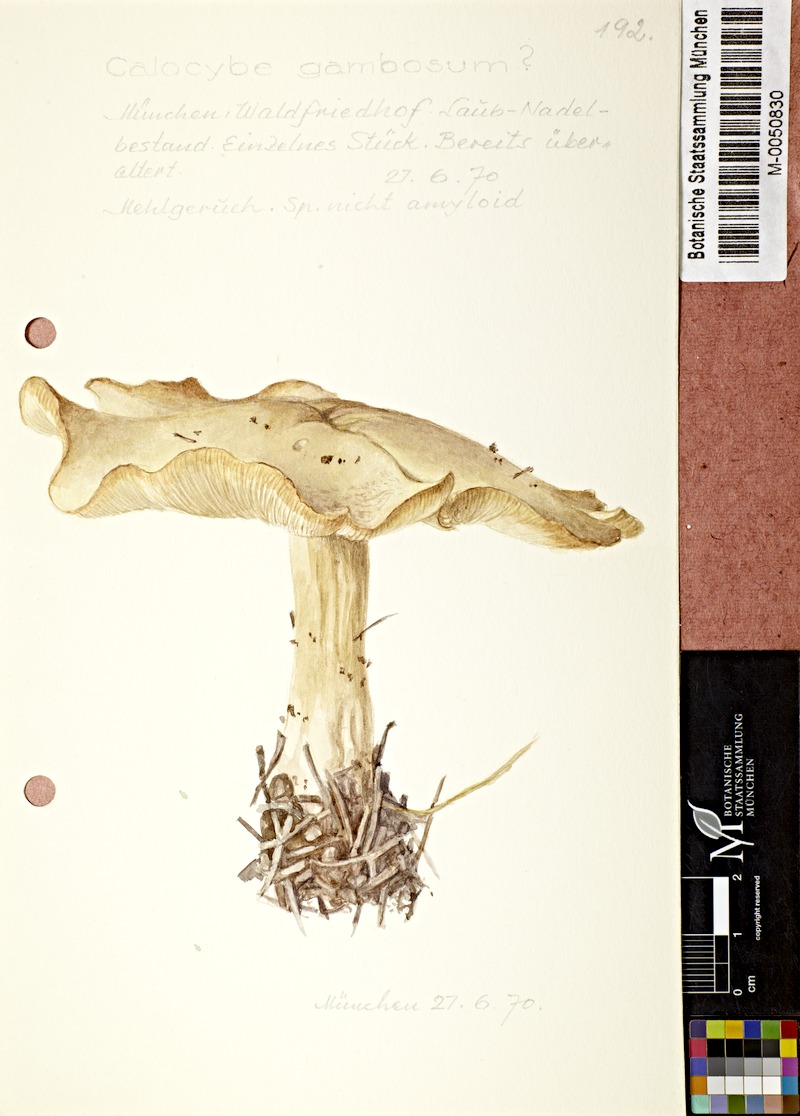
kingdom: Fungi
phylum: Basidiomycota
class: Agaricomycetes
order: Agaricales
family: Lyophyllaceae
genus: Calocybe
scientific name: Calocybe gambosa
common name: St. george's mushroom
